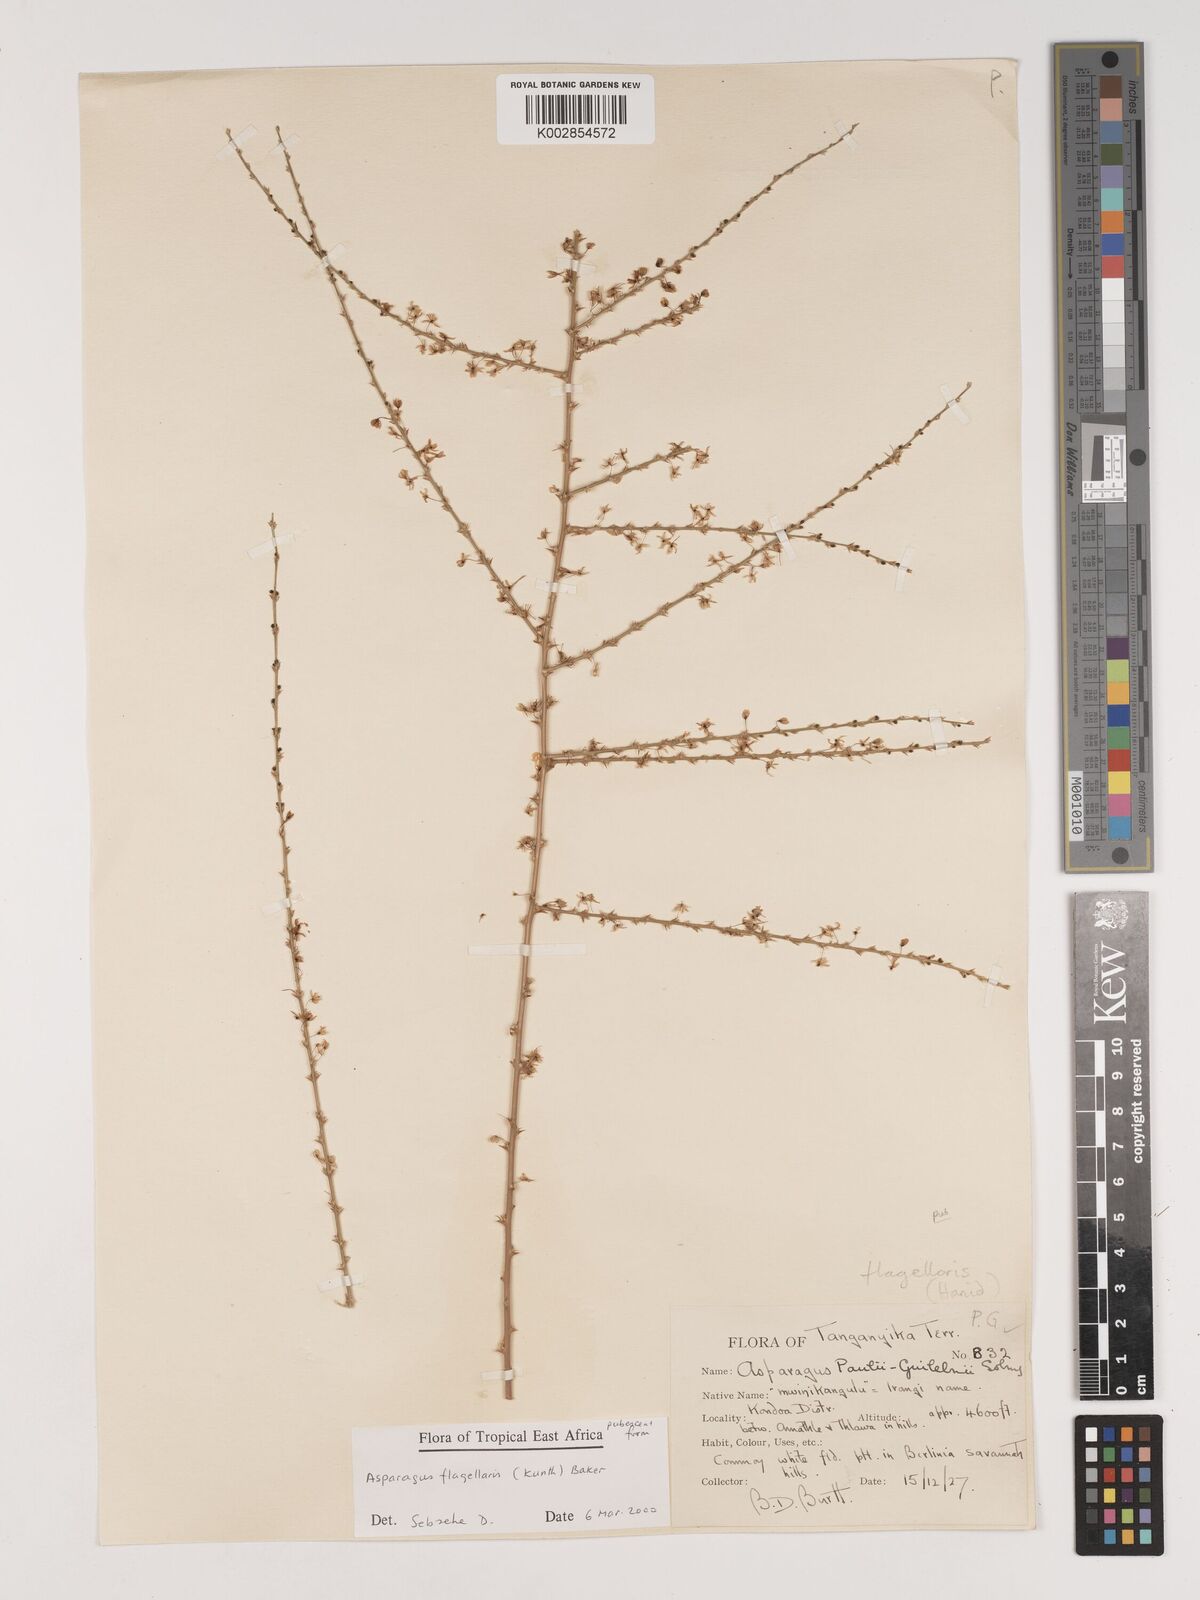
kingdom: Plantae
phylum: Tracheophyta
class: Liliopsida
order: Asparagales
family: Asparagaceae
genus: Asparagus
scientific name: Asparagus flagellaris
